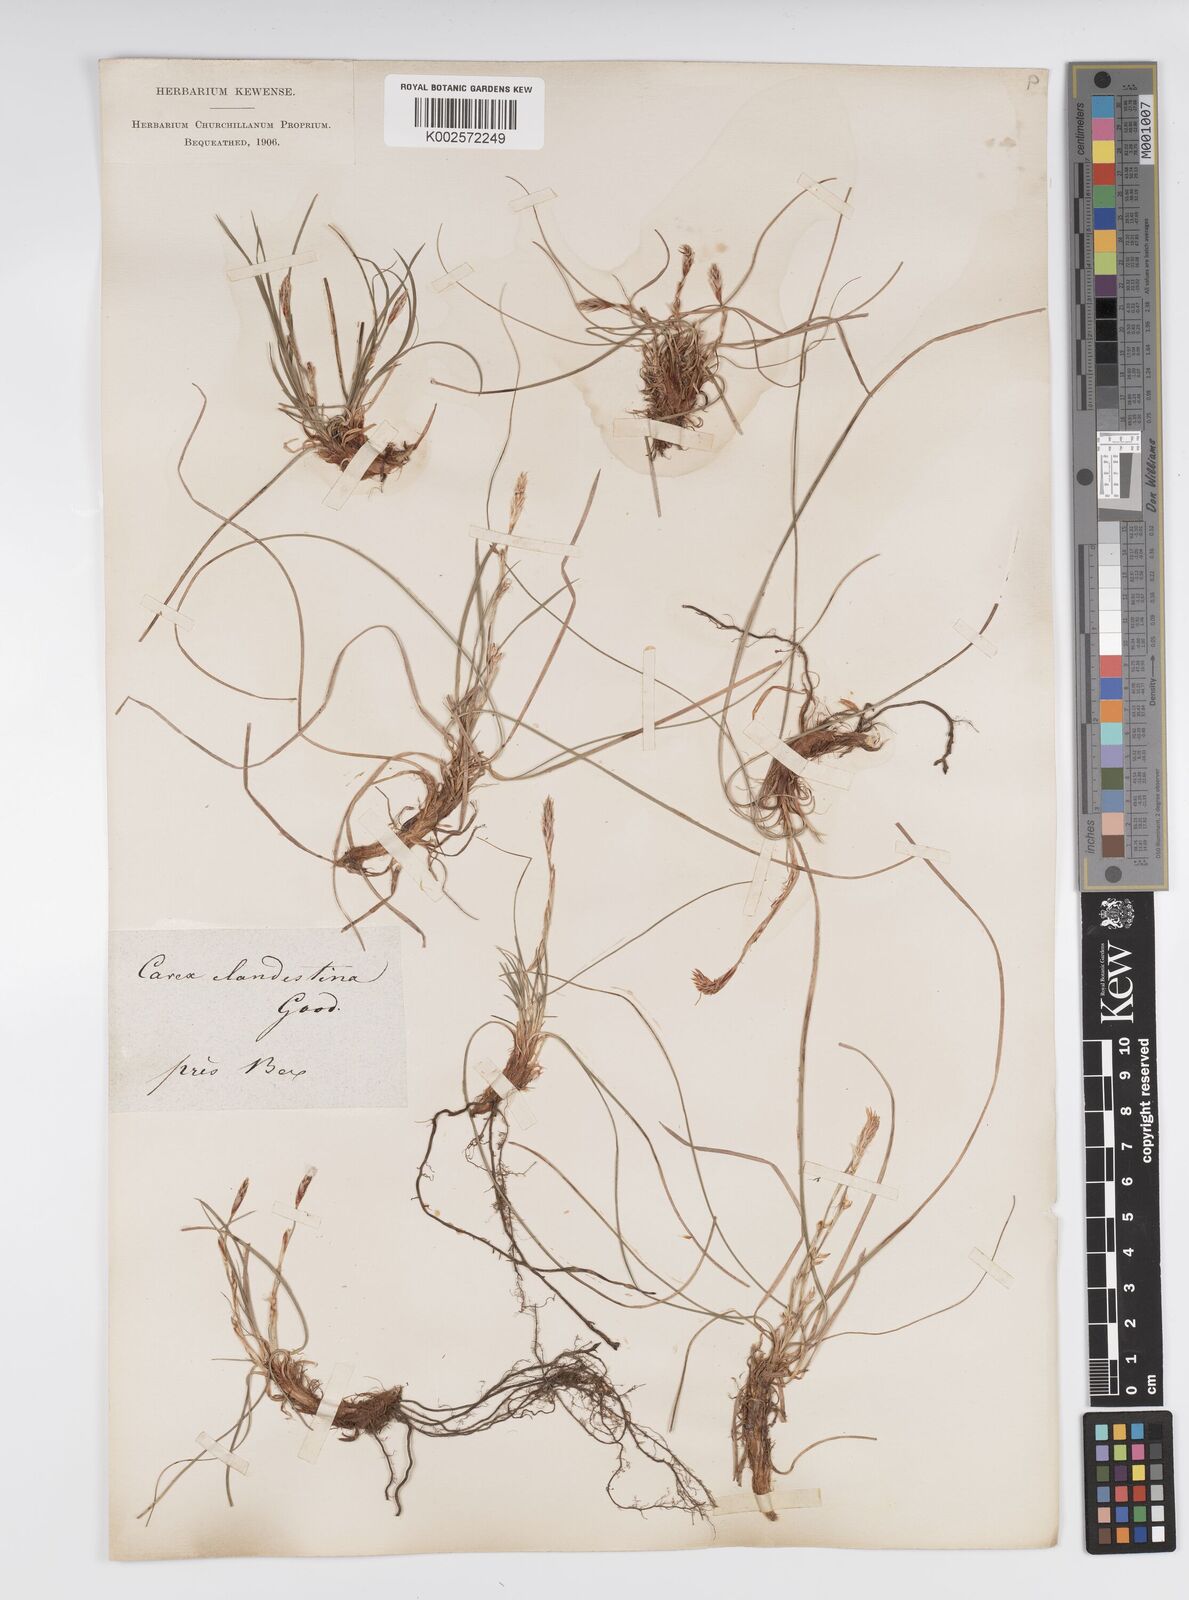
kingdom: Plantae
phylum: Tracheophyta
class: Liliopsida
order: Poales
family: Cyperaceae
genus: Carex
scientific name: Carex humilis
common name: Dwarf sedge
